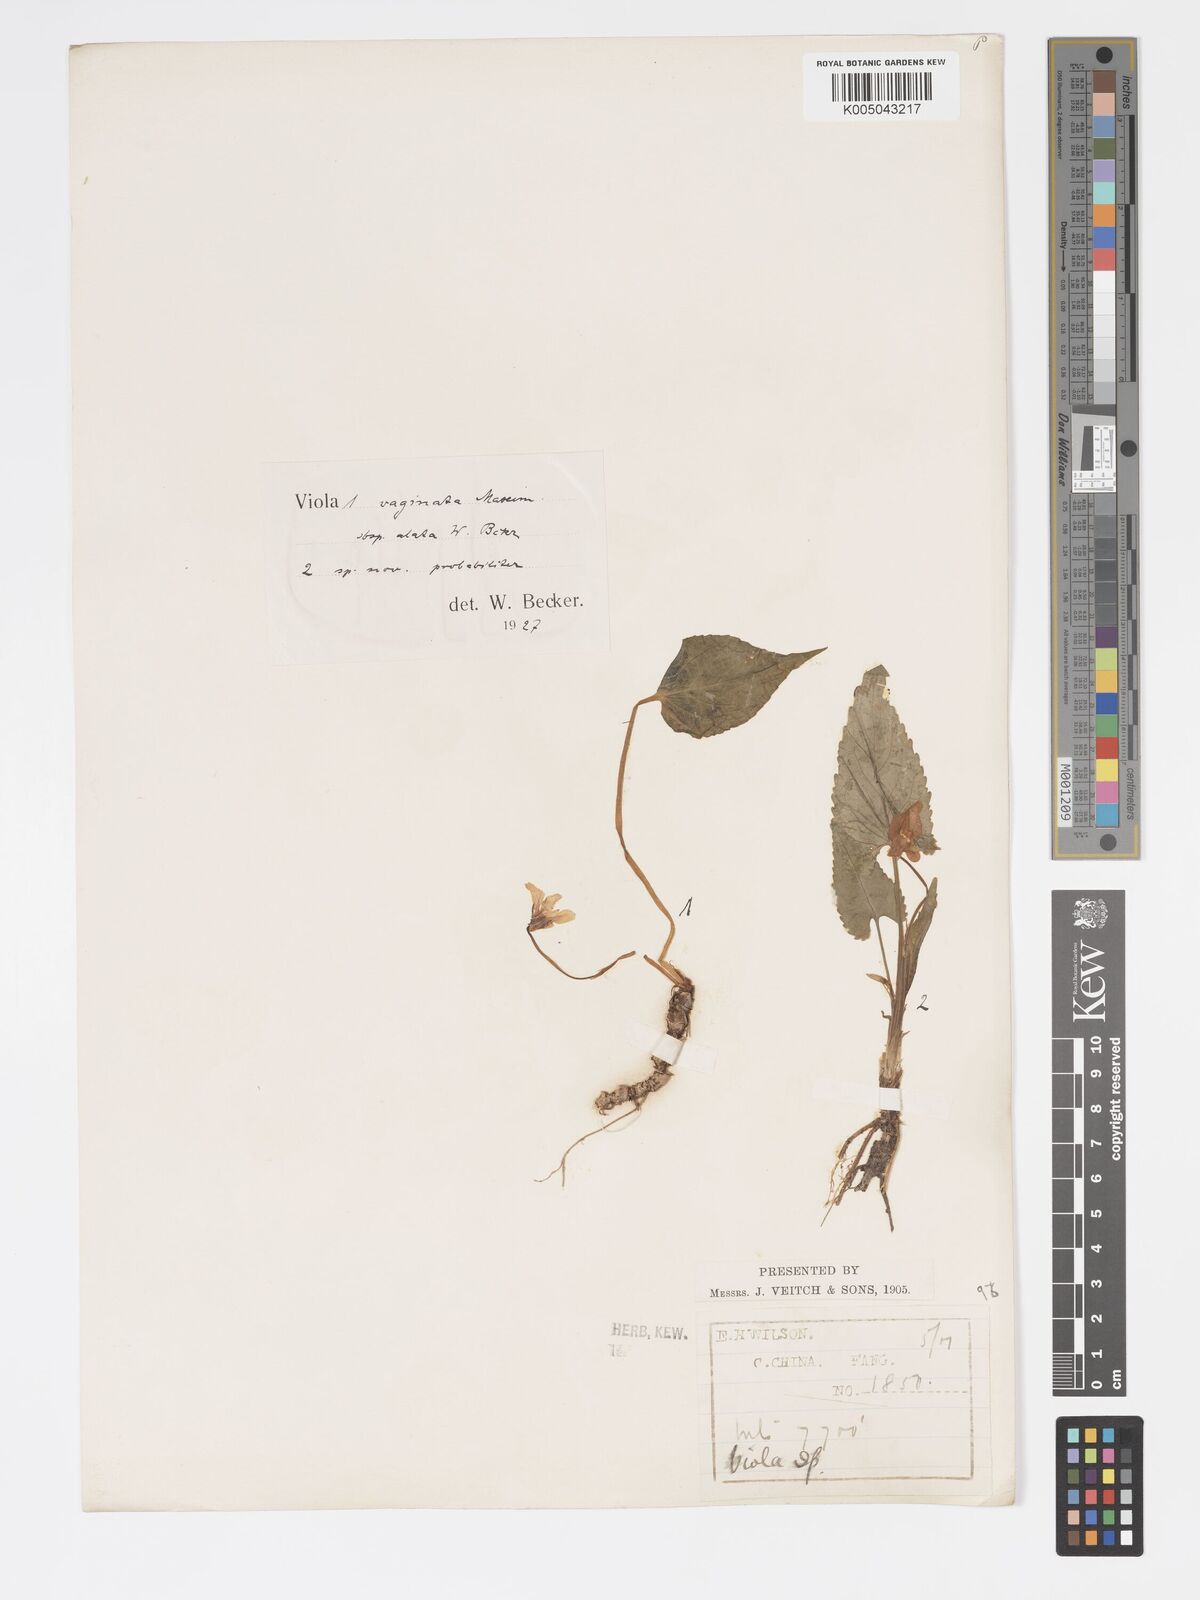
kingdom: Plantae
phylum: Tracheophyta
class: Magnoliopsida
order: Malpighiales
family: Violaceae
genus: Viola
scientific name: Viola vaginata
